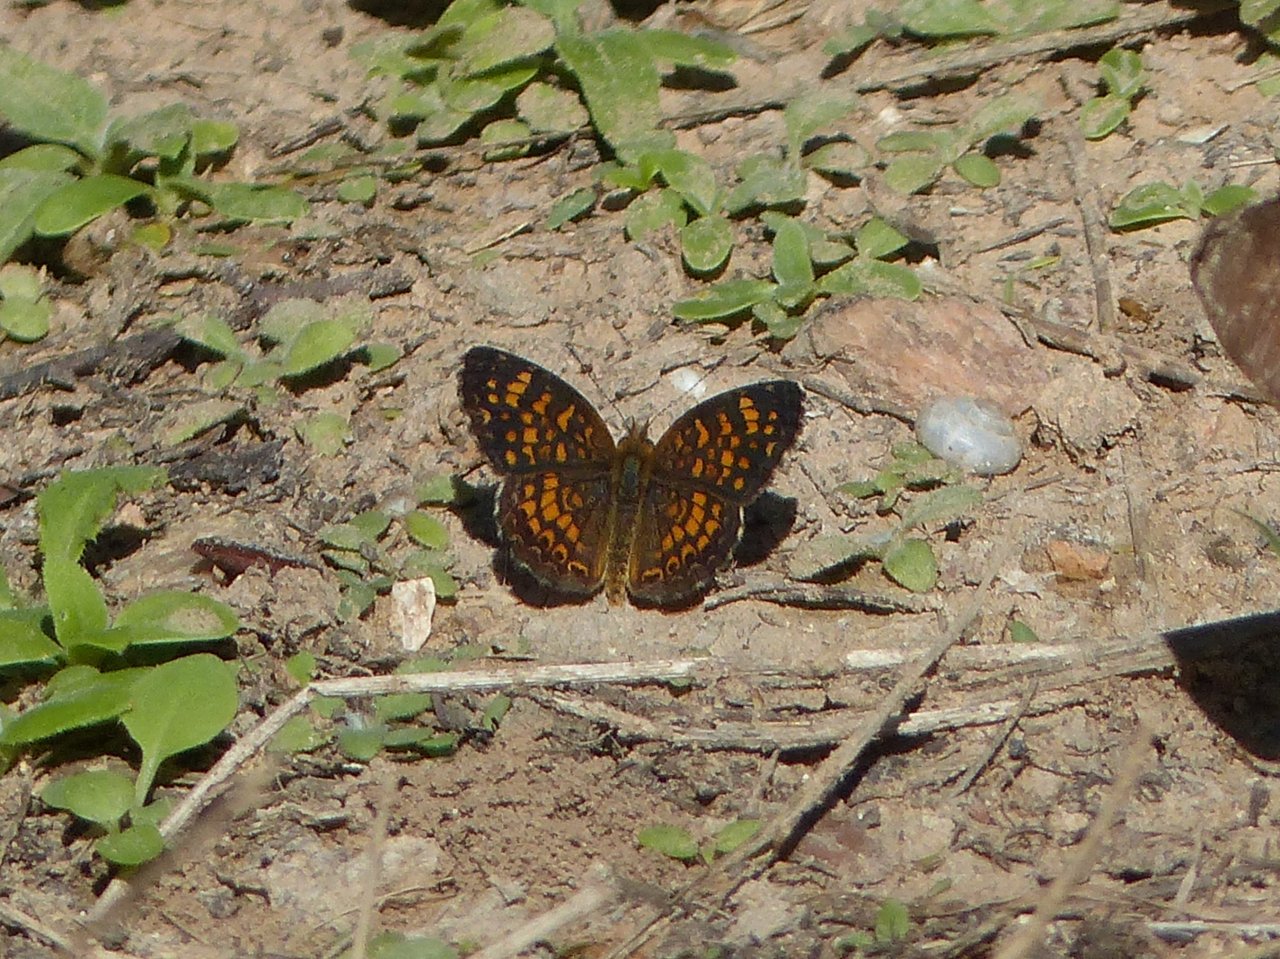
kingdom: Animalia
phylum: Arthropoda
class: Insecta
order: Lepidoptera
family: Nymphalidae
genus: Phyciodes
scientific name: Phyciodes vesta
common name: Vesta Crescent
